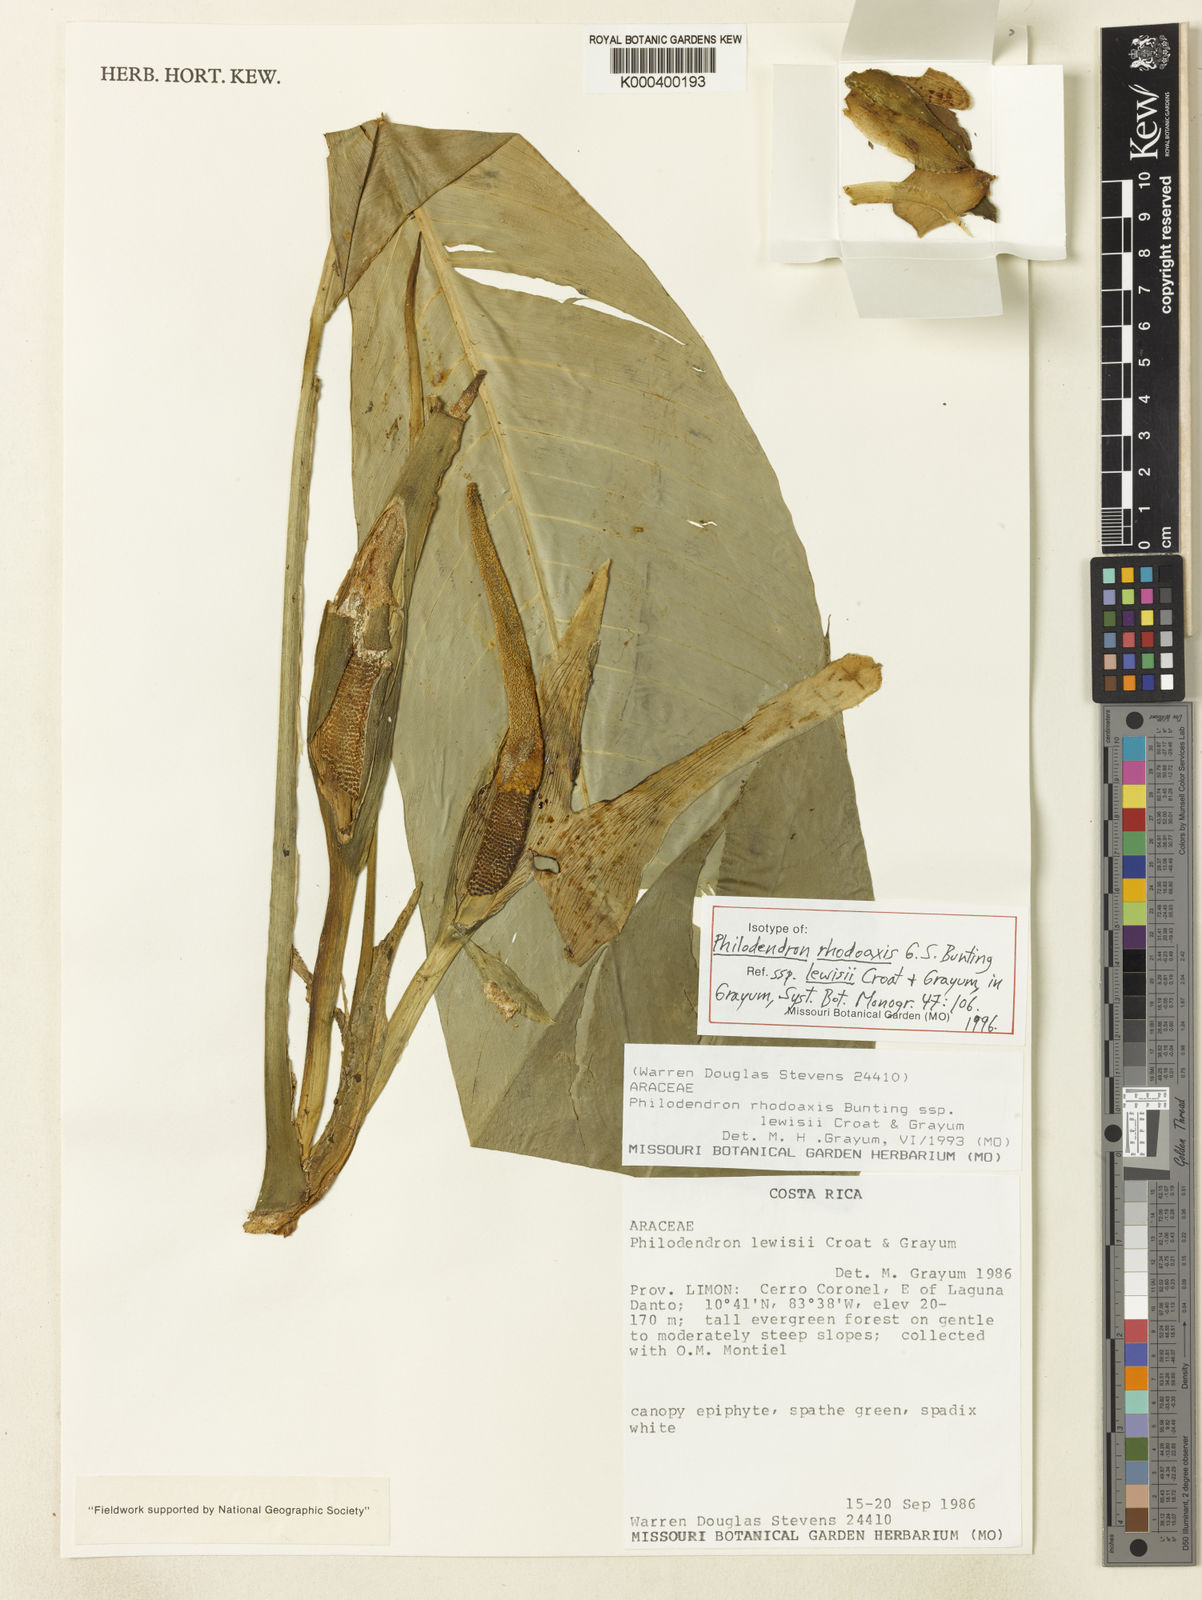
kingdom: Plantae
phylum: Tracheophyta
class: Liliopsida
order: Alismatales
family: Araceae
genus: Philodendron
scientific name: Philodendron rhodoaxis
